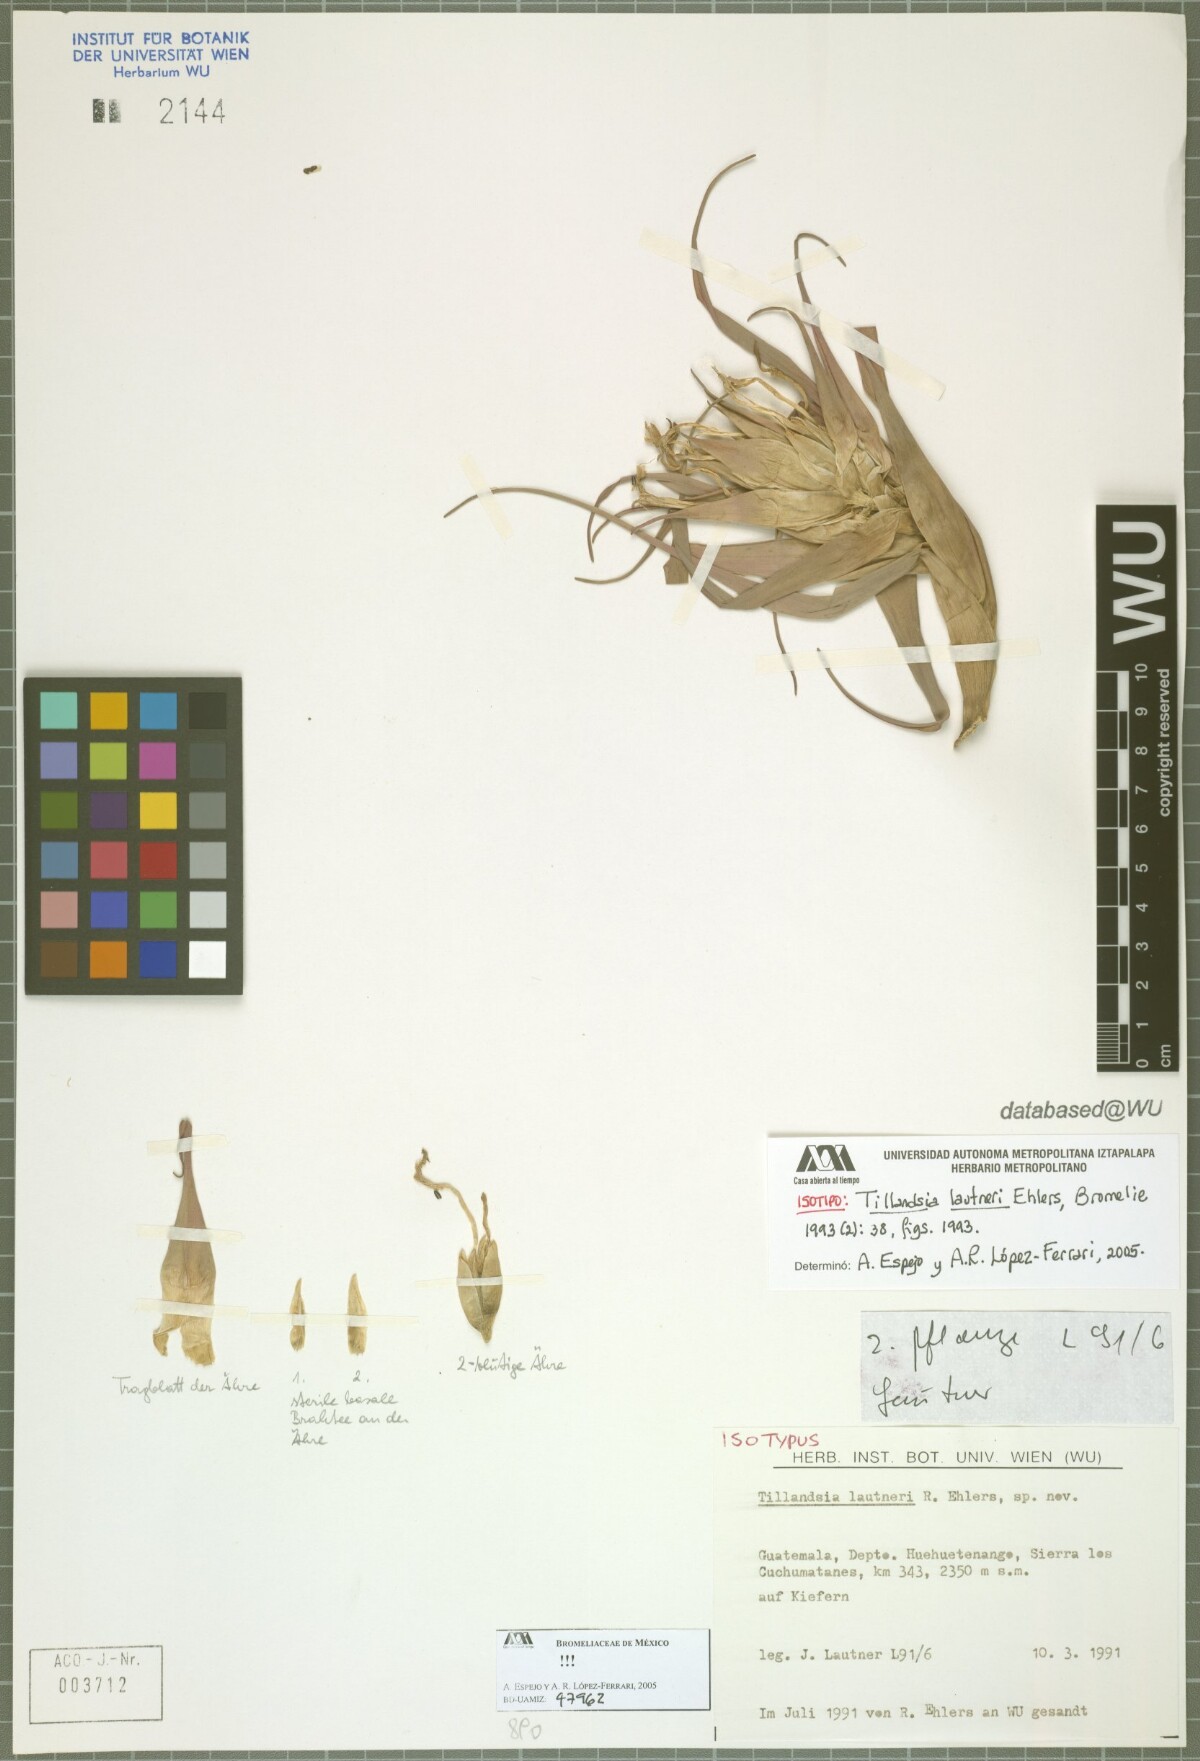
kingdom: Plantae
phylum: Tracheophyta
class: Liliopsida
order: Poales
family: Bromeliaceae
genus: Tillandsia
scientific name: Tillandsia lautneri
